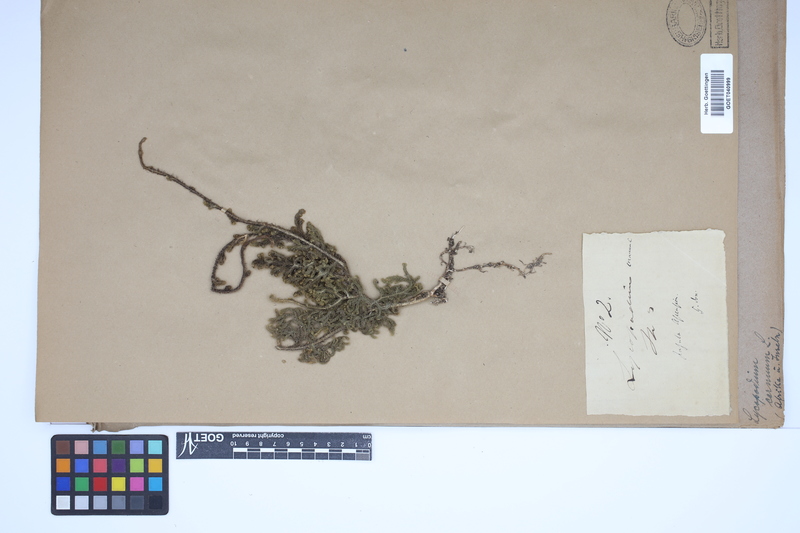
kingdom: Plantae
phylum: Tracheophyta
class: Lycopodiopsida
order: Lycopodiales
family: Lycopodiaceae
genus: Palhinhaea
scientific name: Palhinhaea cernua
